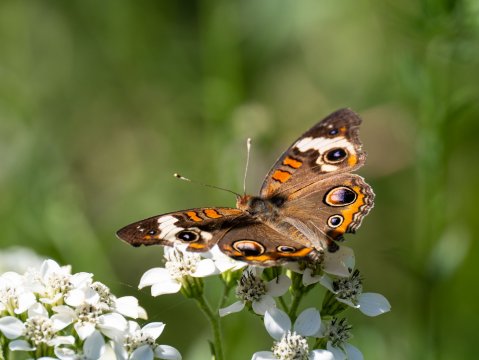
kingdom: Animalia
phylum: Arthropoda
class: Insecta
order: Lepidoptera
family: Nymphalidae
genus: Junonia
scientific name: Junonia coenia
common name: Common Buckeye
